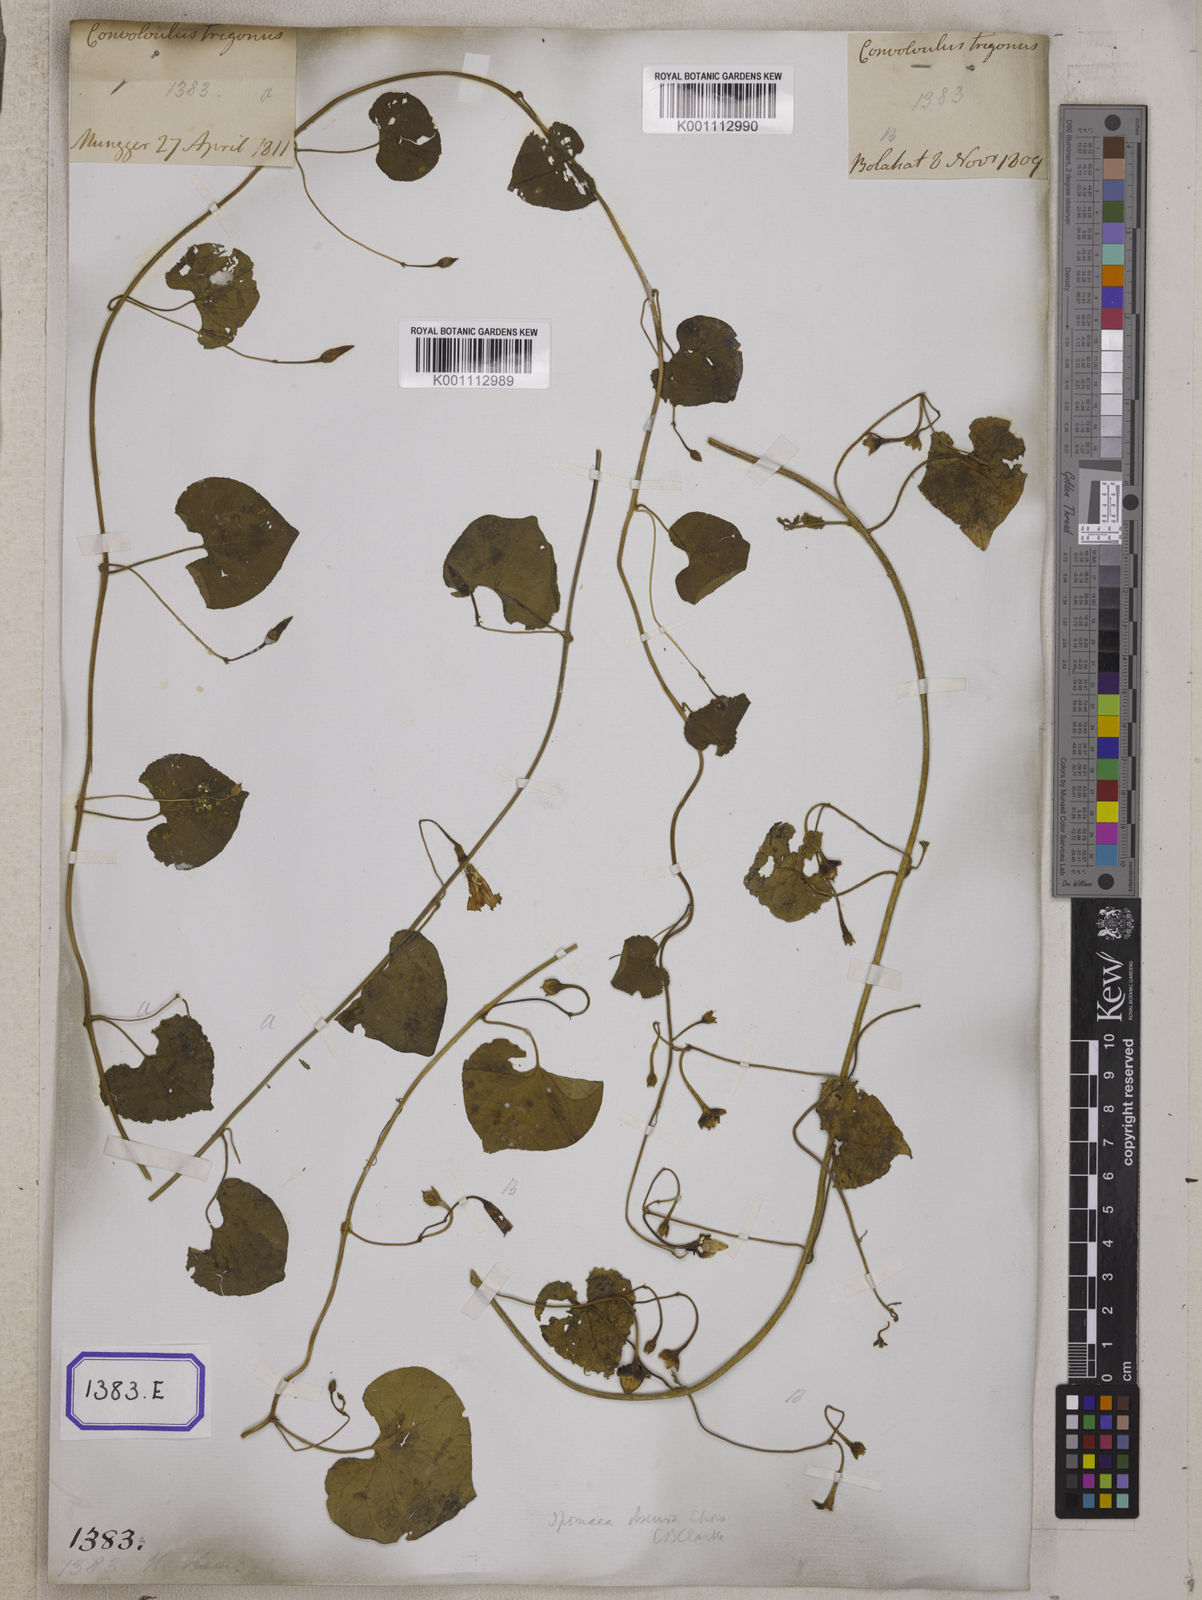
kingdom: Plantae
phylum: Tracheophyta
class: Magnoliopsida
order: Solanales
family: Convolvulaceae
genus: Convolvulus
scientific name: Convolvulus
